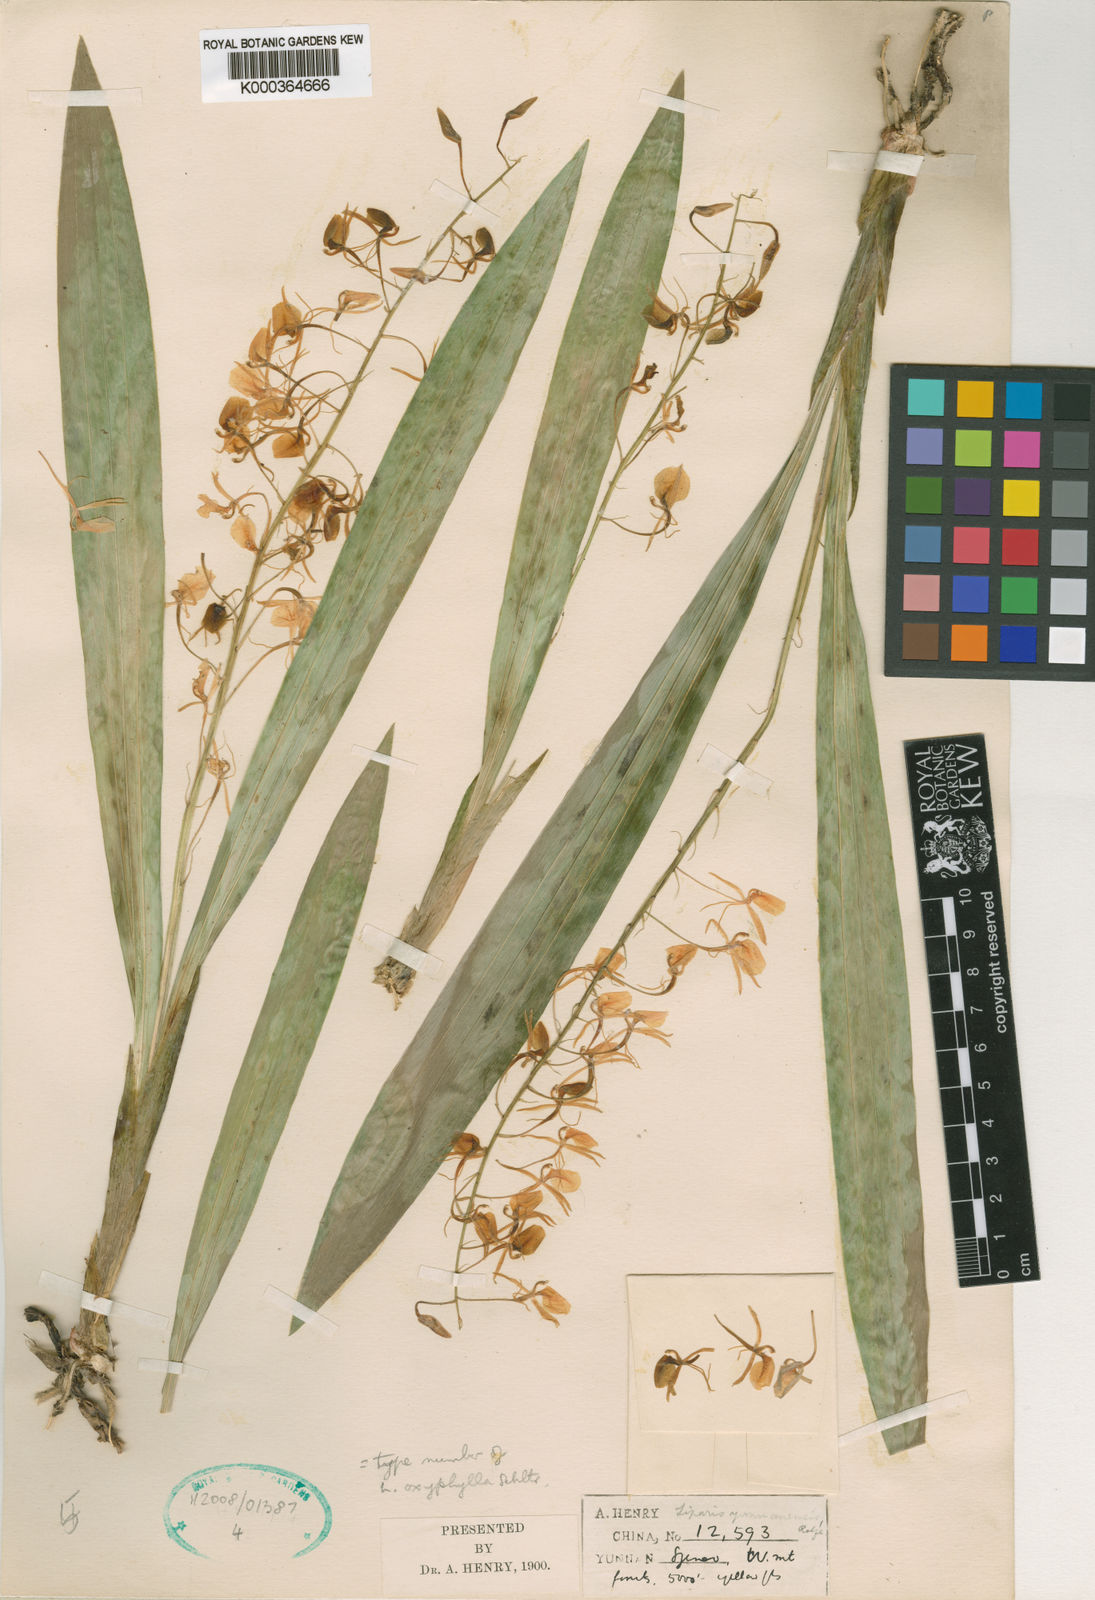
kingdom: Plantae
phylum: Tracheophyta
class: Liliopsida
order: Asparagales
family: Orchidaceae
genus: Liparis
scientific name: Liparis distans
